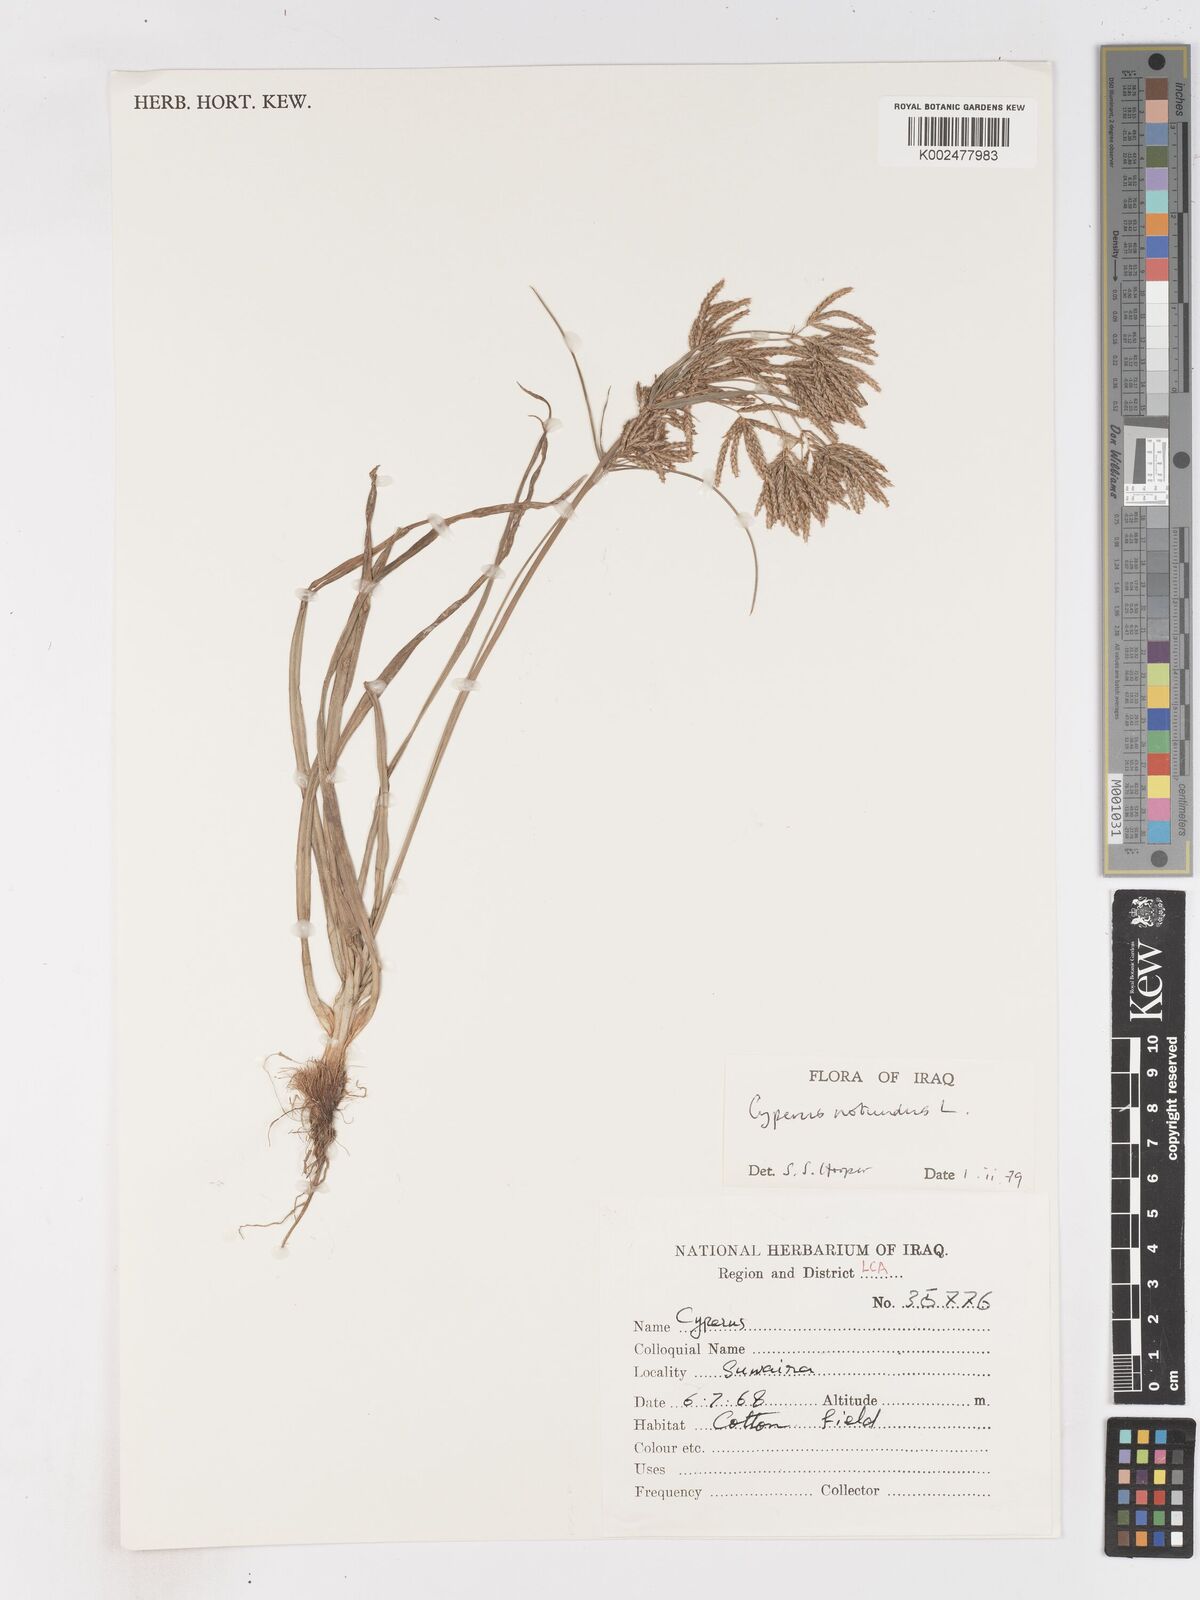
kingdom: Plantae
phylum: Tracheophyta
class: Liliopsida
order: Poales
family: Cyperaceae
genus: Cyperus
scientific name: Cyperus rotundus
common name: Nutgrass
